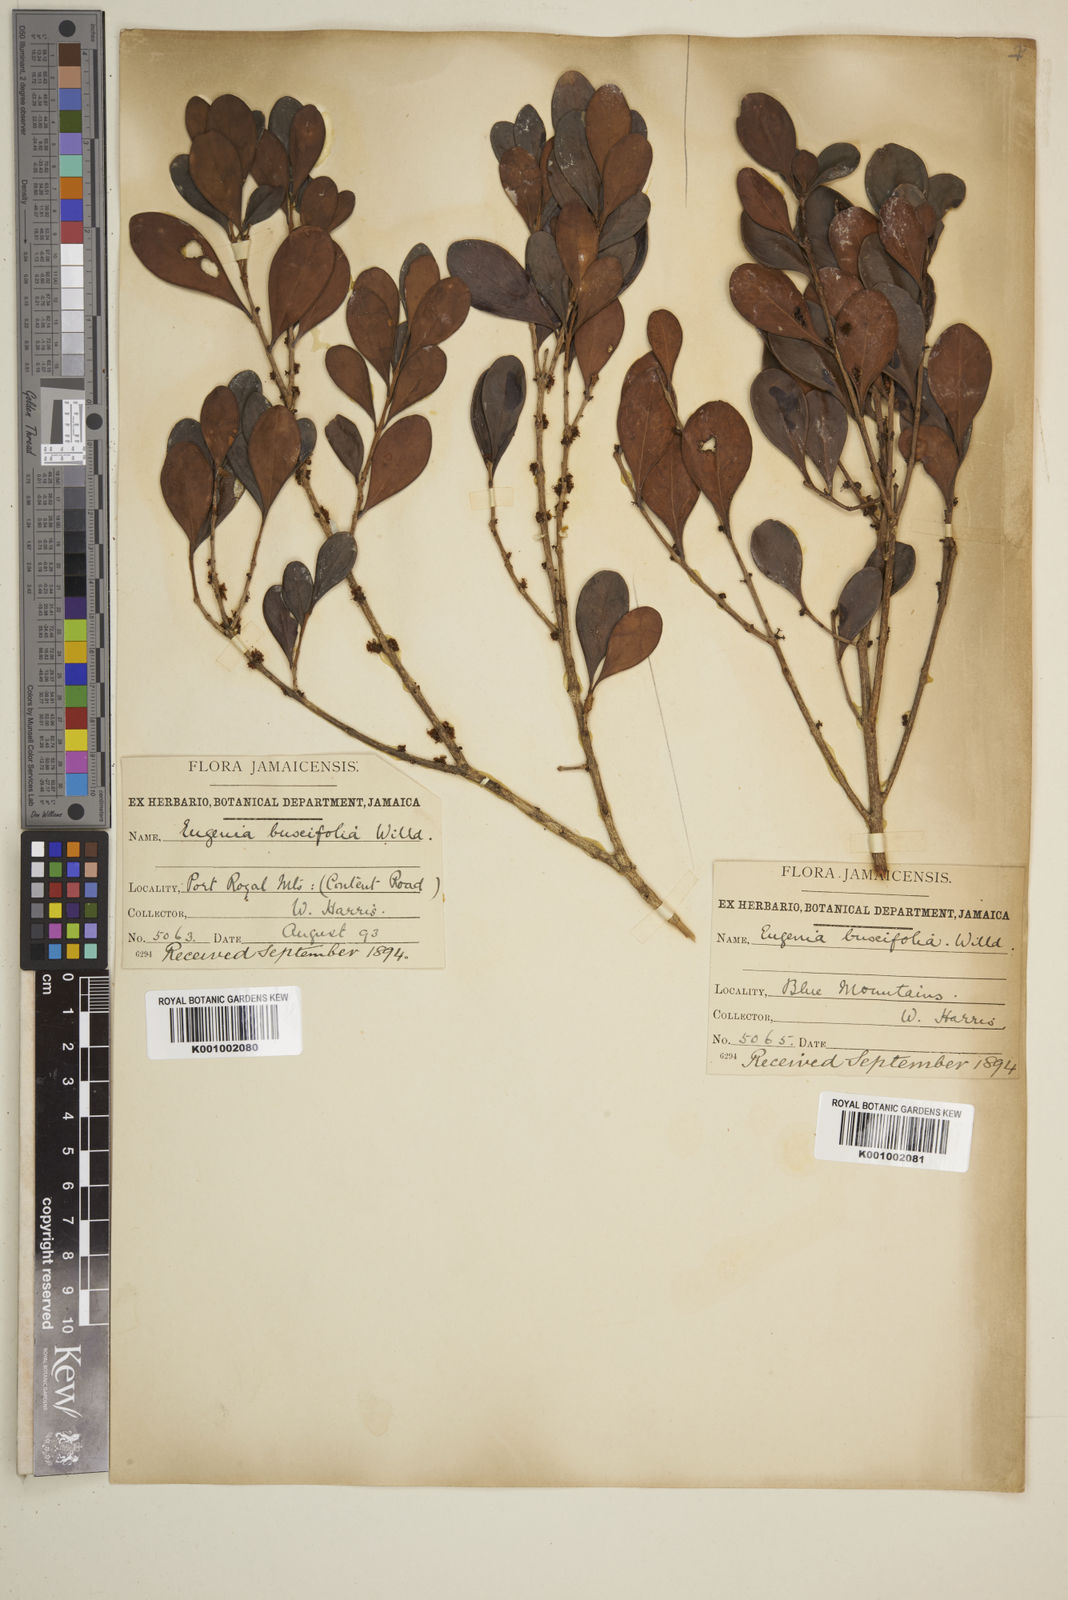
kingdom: Plantae
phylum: Tracheophyta
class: Magnoliopsida
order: Myrtales
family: Myrtaceae
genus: Eugenia
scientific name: Eugenia buxifolia
